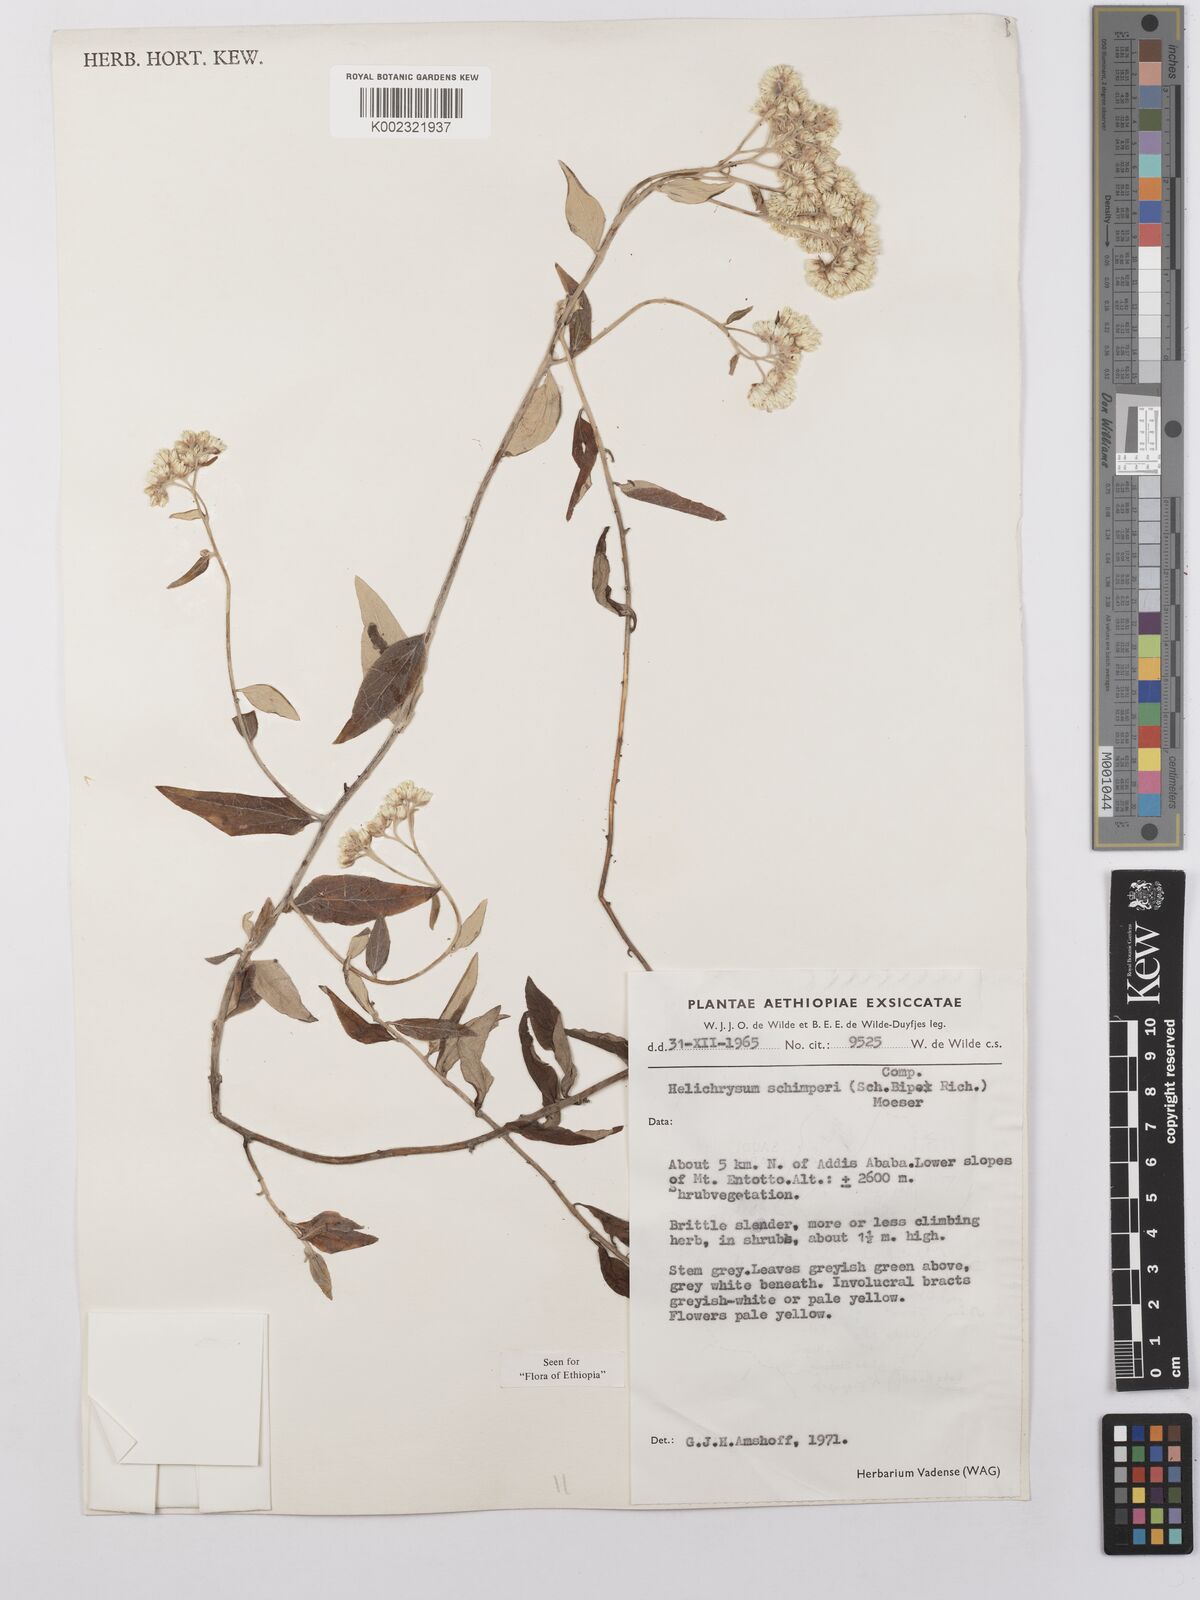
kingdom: Plantae
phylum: Tracheophyta
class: Magnoliopsida
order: Asterales
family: Asteraceae
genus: Helichrysum
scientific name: Helichrysum schimperi
